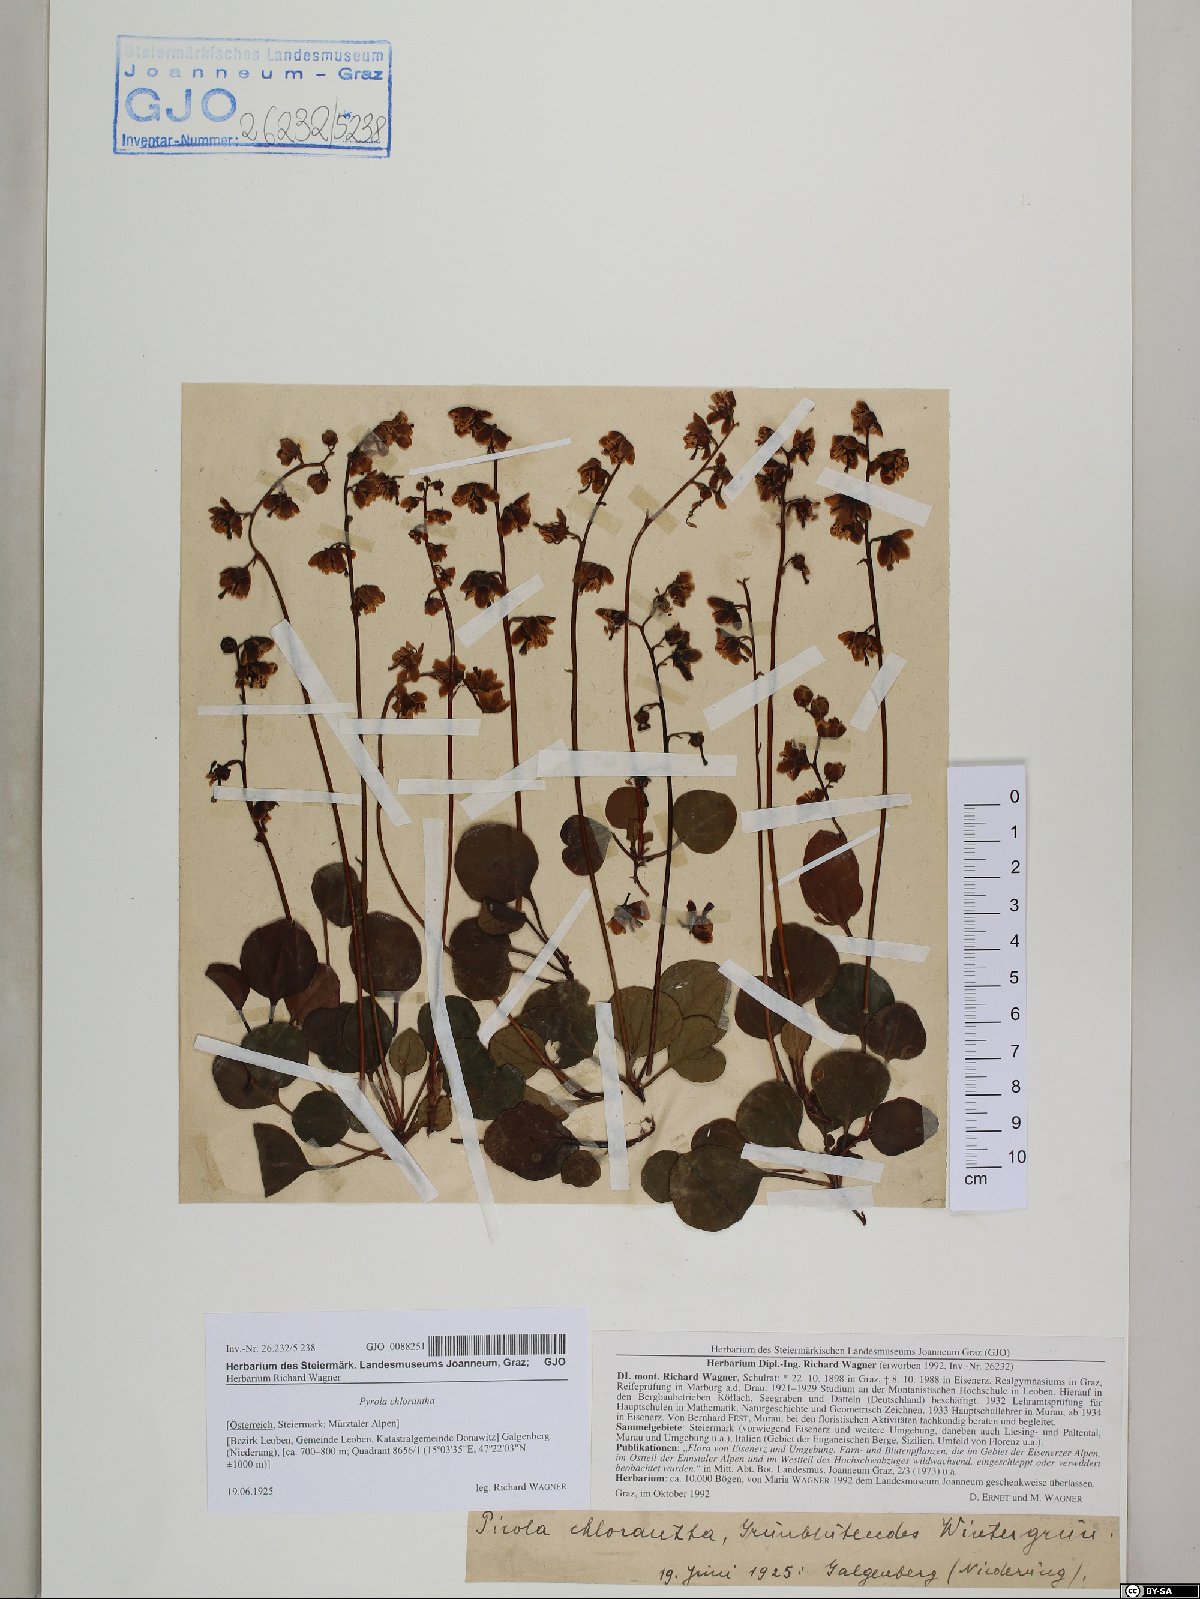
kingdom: Plantae
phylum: Tracheophyta
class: Magnoliopsida
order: Ericales
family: Ericaceae
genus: Pyrola
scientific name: Pyrola chlorantha
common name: Green wintergreen
